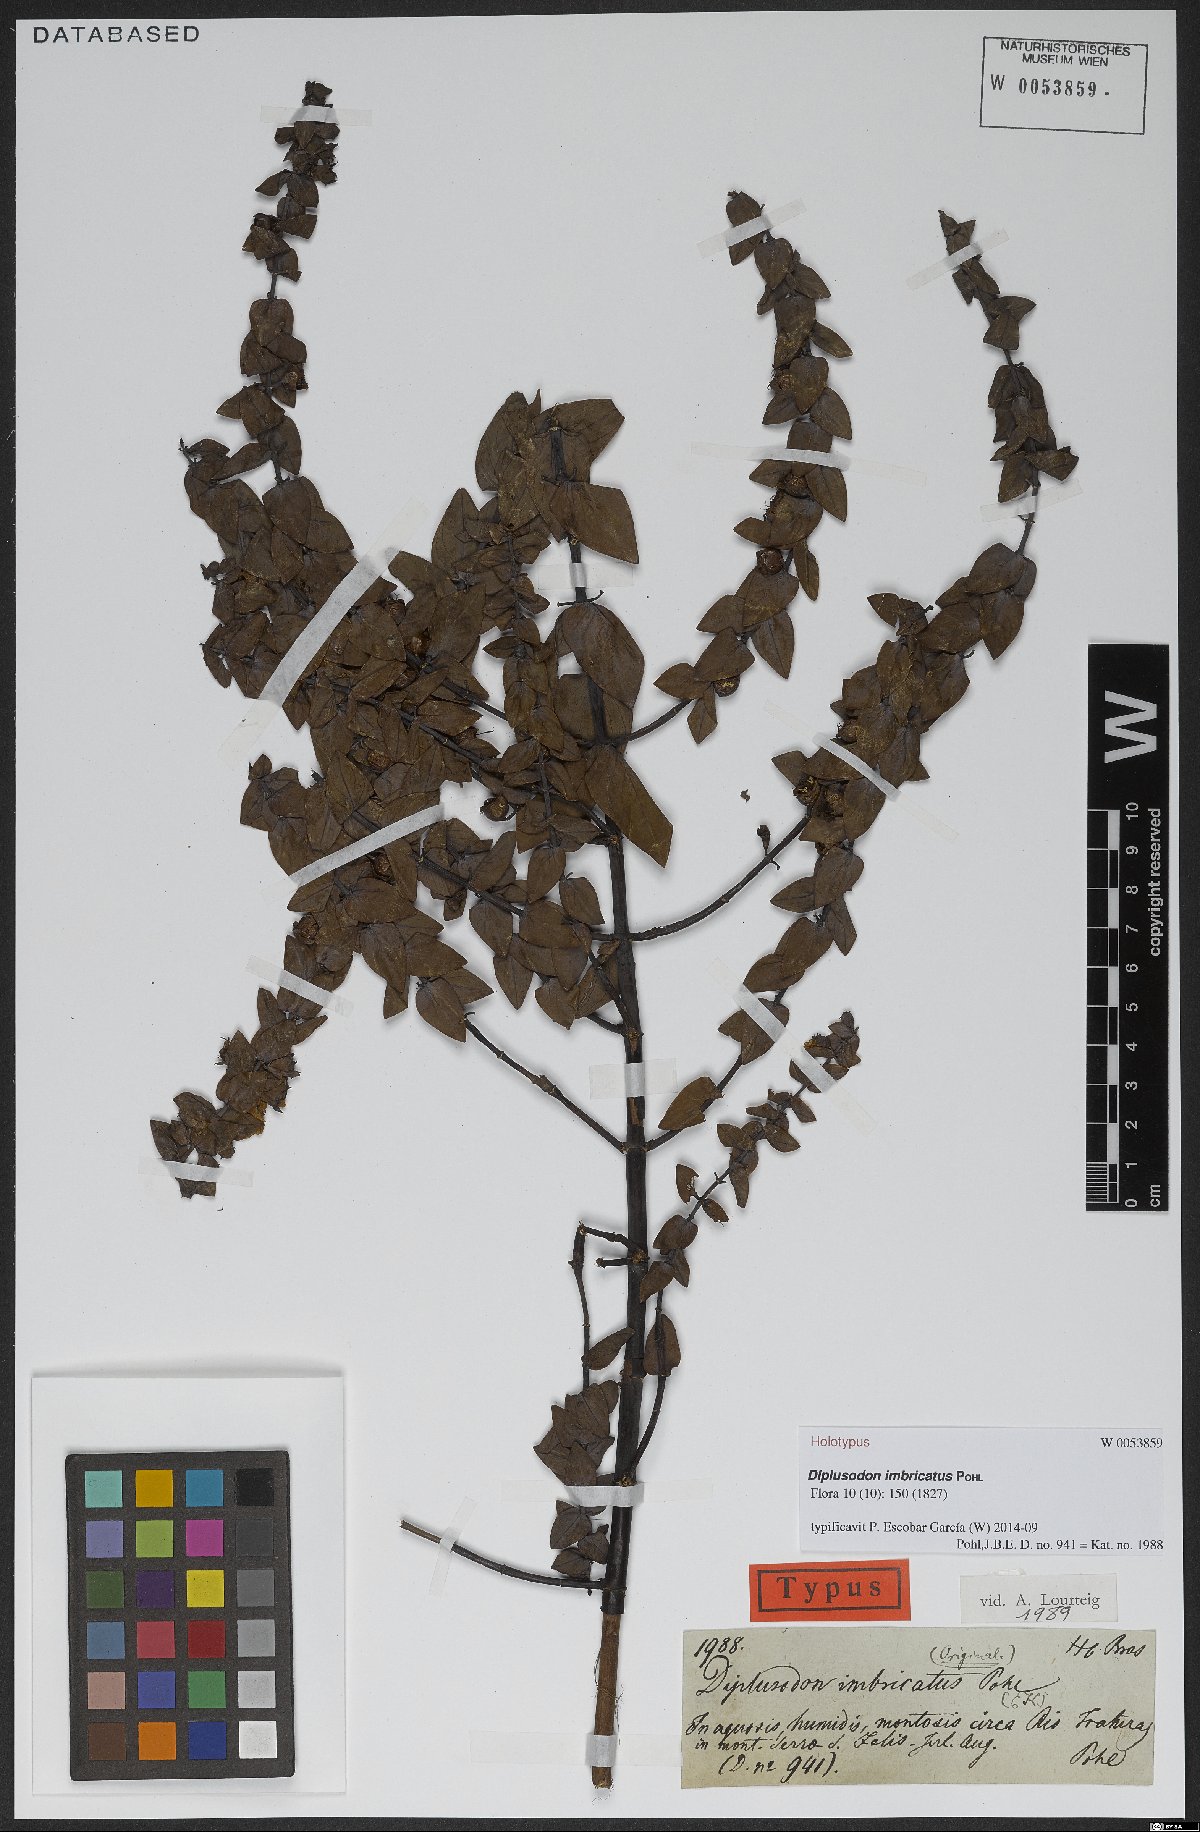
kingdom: Plantae
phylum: Tracheophyta
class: Magnoliopsida
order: Myrtales
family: Lythraceae
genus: Diplusodon
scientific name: Diplusodon imbricatus
